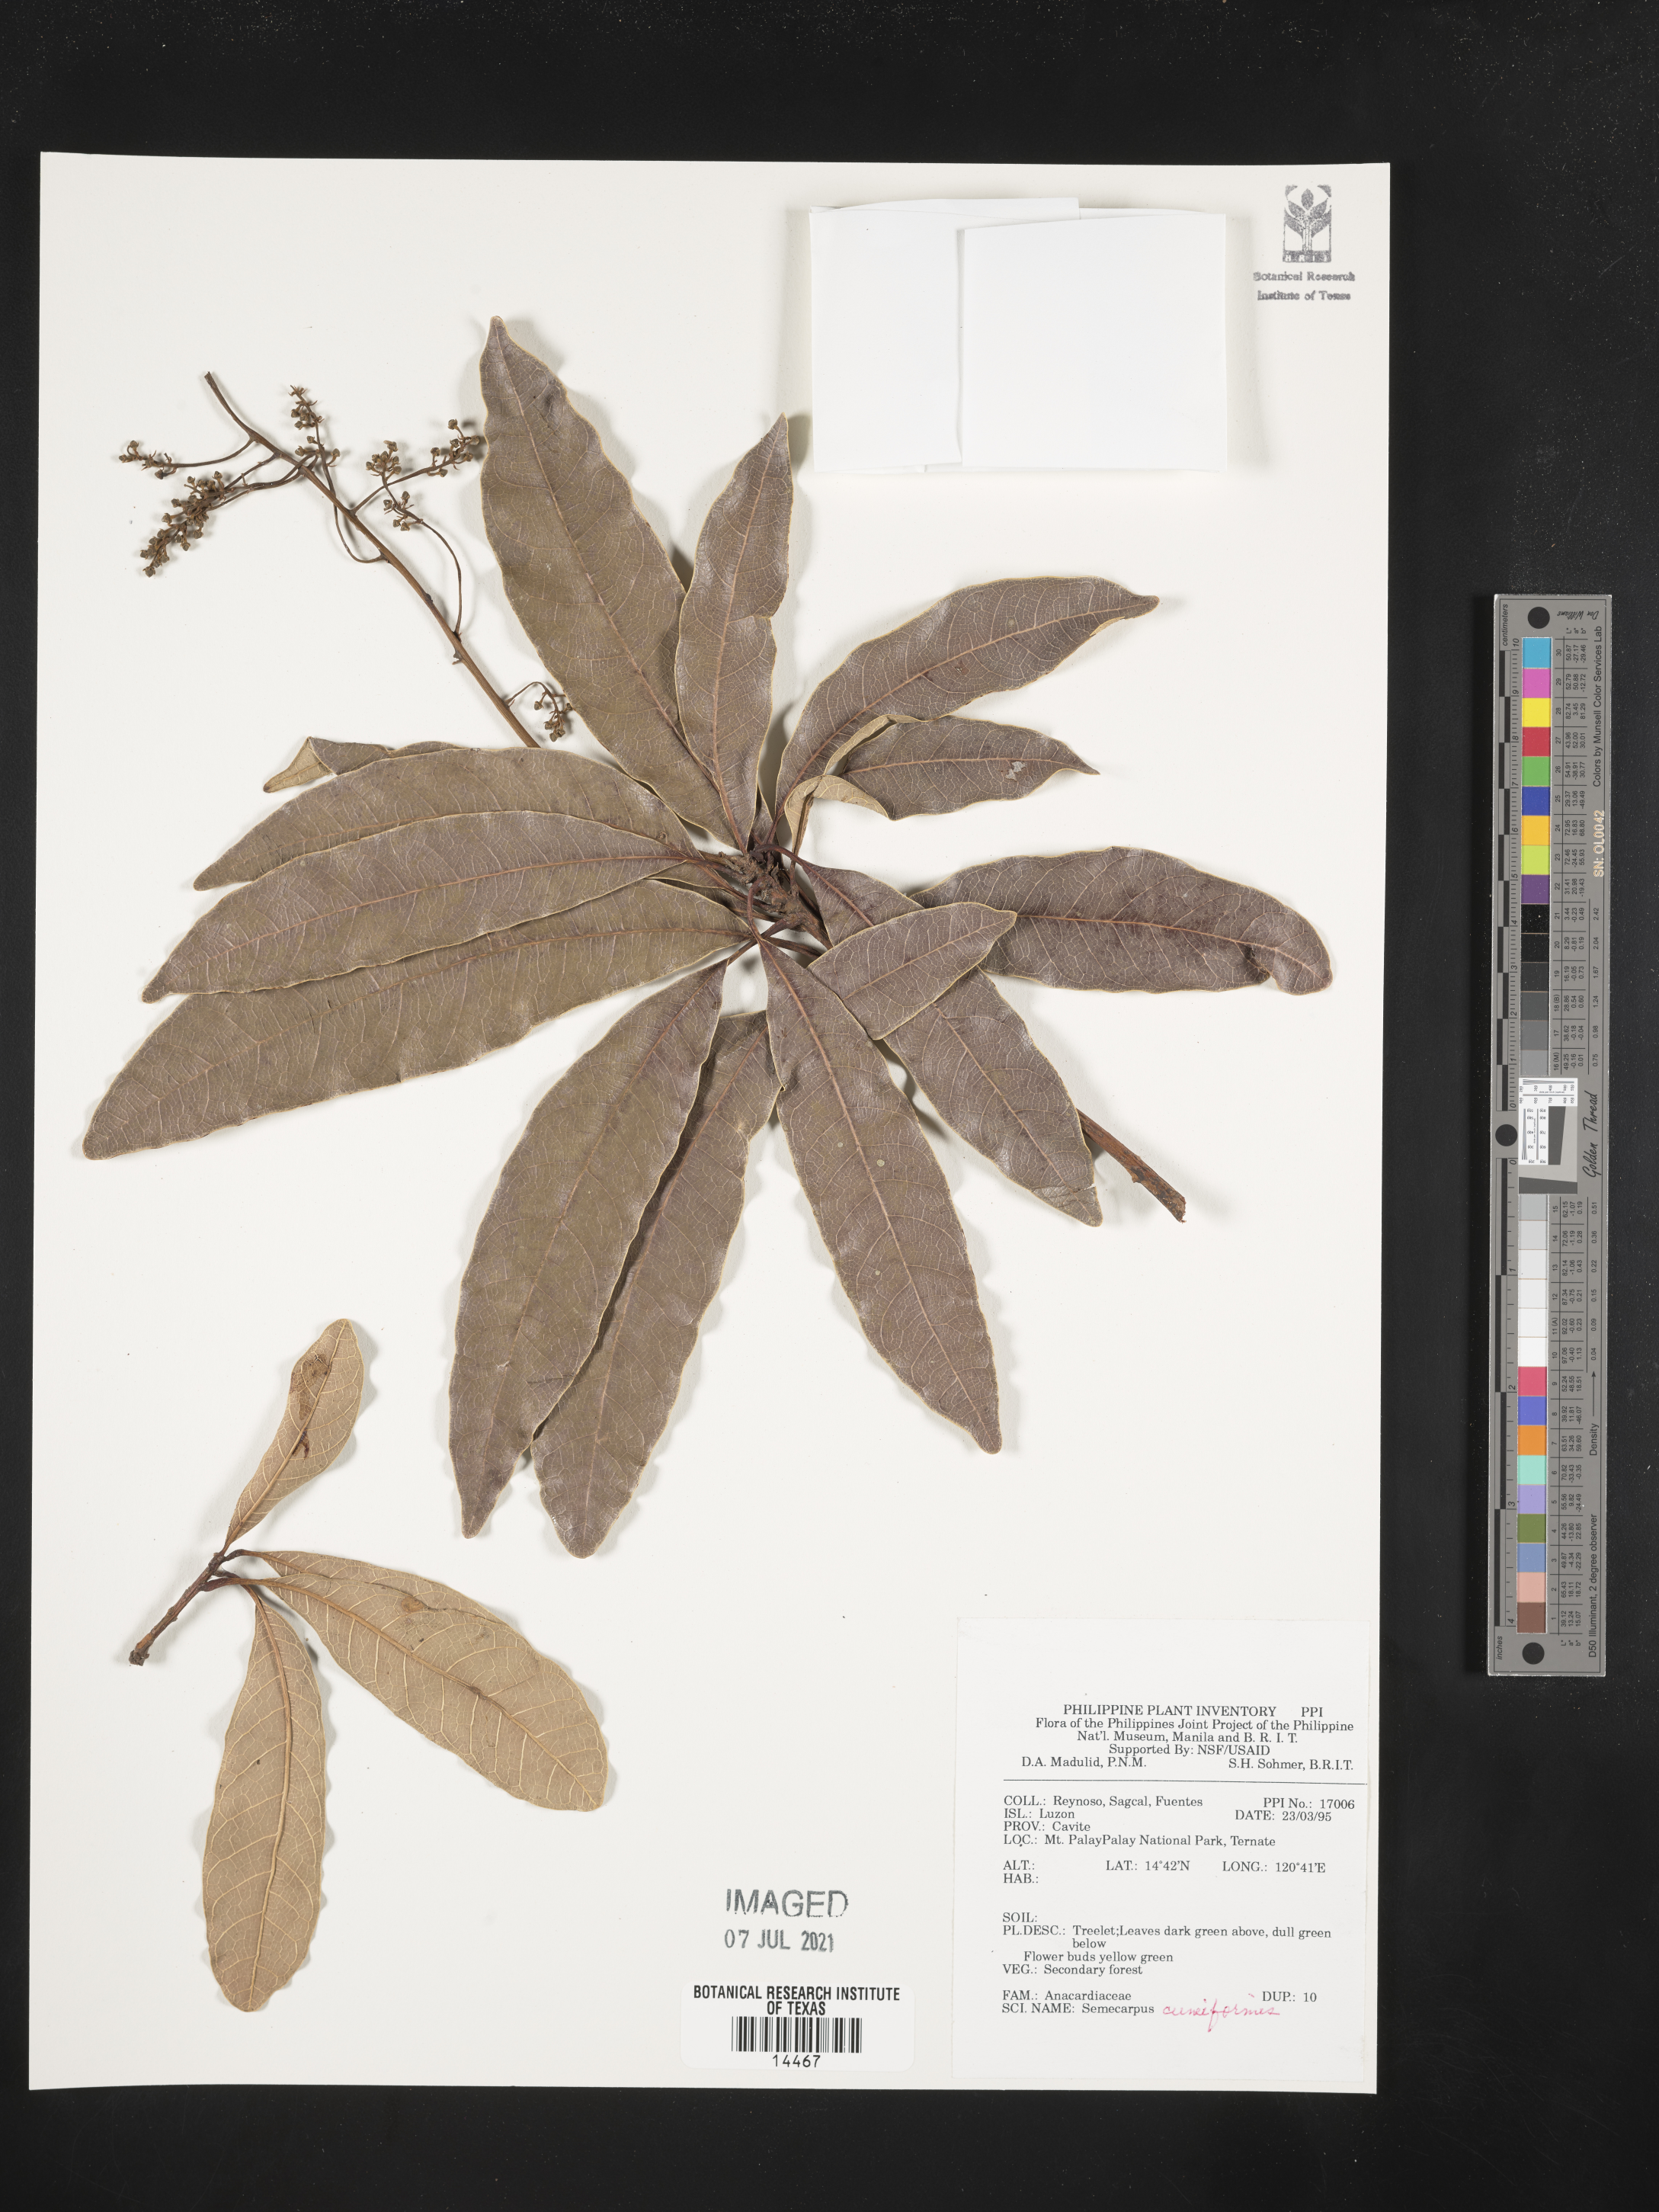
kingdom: Plantae
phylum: Tracheophyta
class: Magnoliopsida
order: Sapindales
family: Anacardiaceae
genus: Semecarpus
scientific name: Semecarpus cuneiformis
